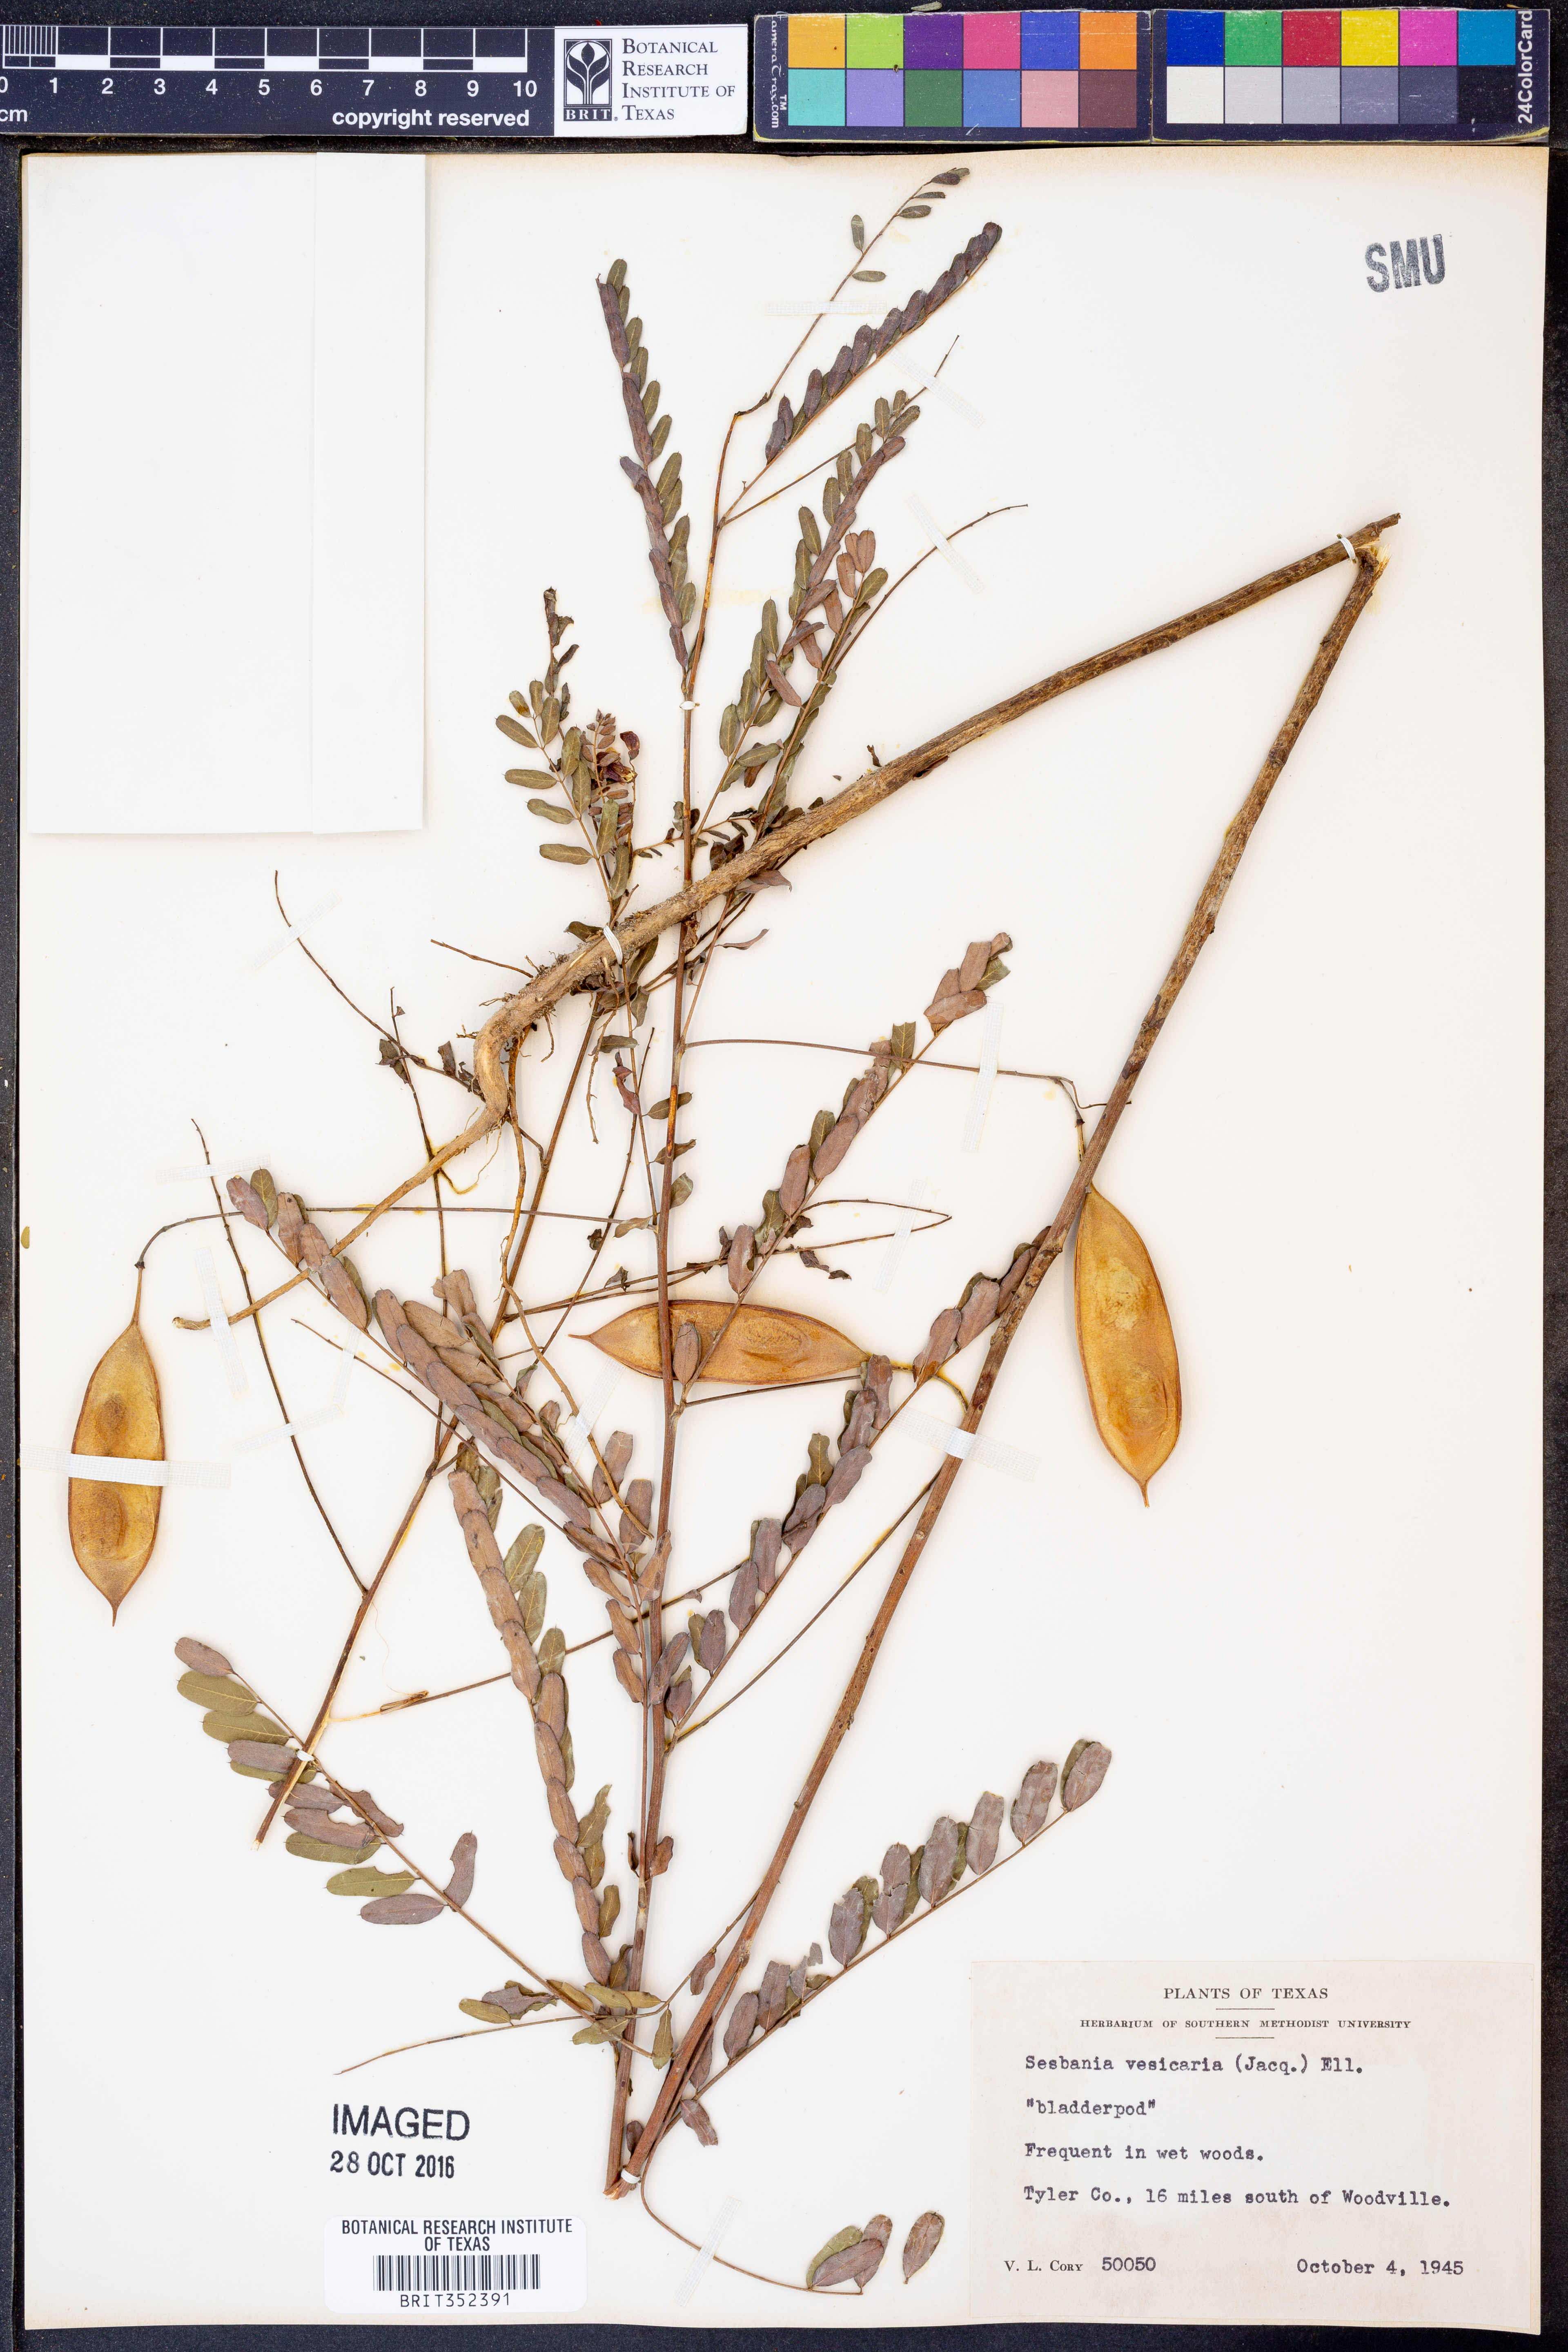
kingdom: Plantae
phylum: Tracheophyta
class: Magnoliopsida
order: Fabales
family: Fabaceae
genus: Sesbania
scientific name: Sesbania vesicaria
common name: Bagpod
